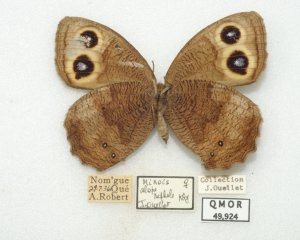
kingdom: Animalia
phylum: Arthropoda
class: Insecta
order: Lepidoptera
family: Nymphalidae
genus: Cercyonis
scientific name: Cercyonis pegala
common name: Common Wood-Nymph
